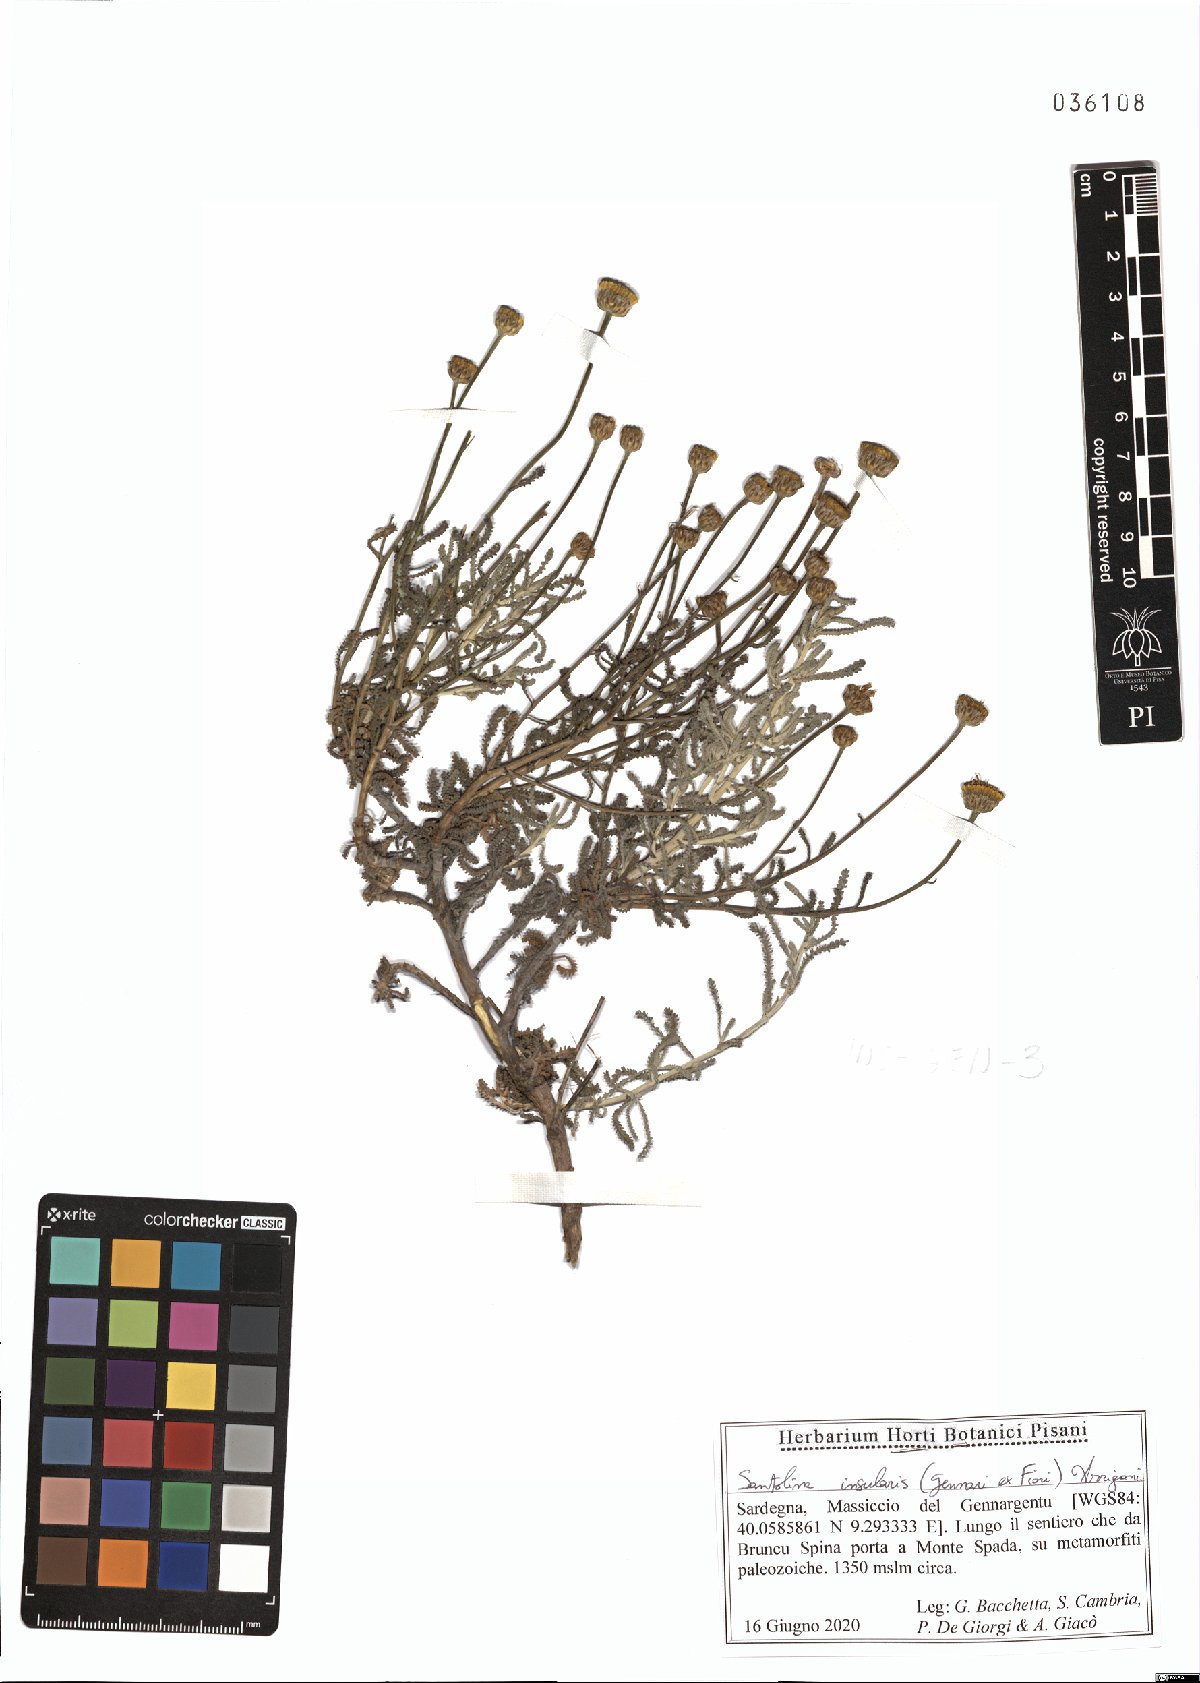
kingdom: Plantae
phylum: Tracheophyta
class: Magnoliopsida
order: Asterales
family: Asteraceae
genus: Santolina
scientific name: Santolina insularis
